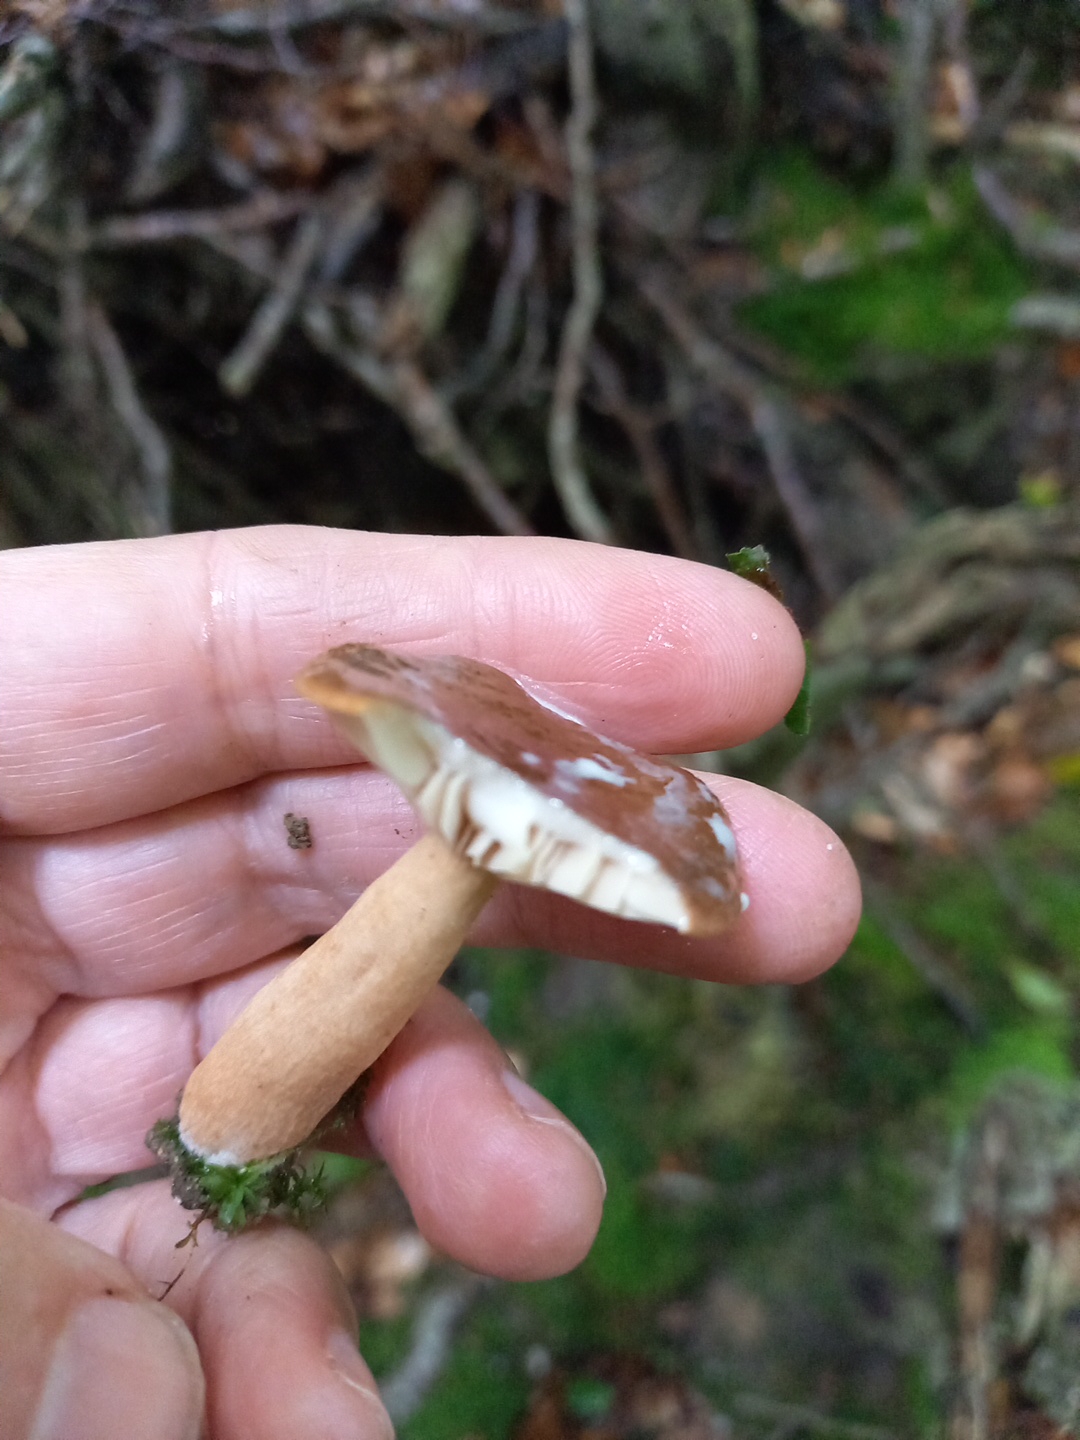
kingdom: Fungi
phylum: Basidiomycota
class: Agaricomycetes
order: Russulales
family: Russulaceae
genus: Lactarius
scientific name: Lactarius
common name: mælkehat
